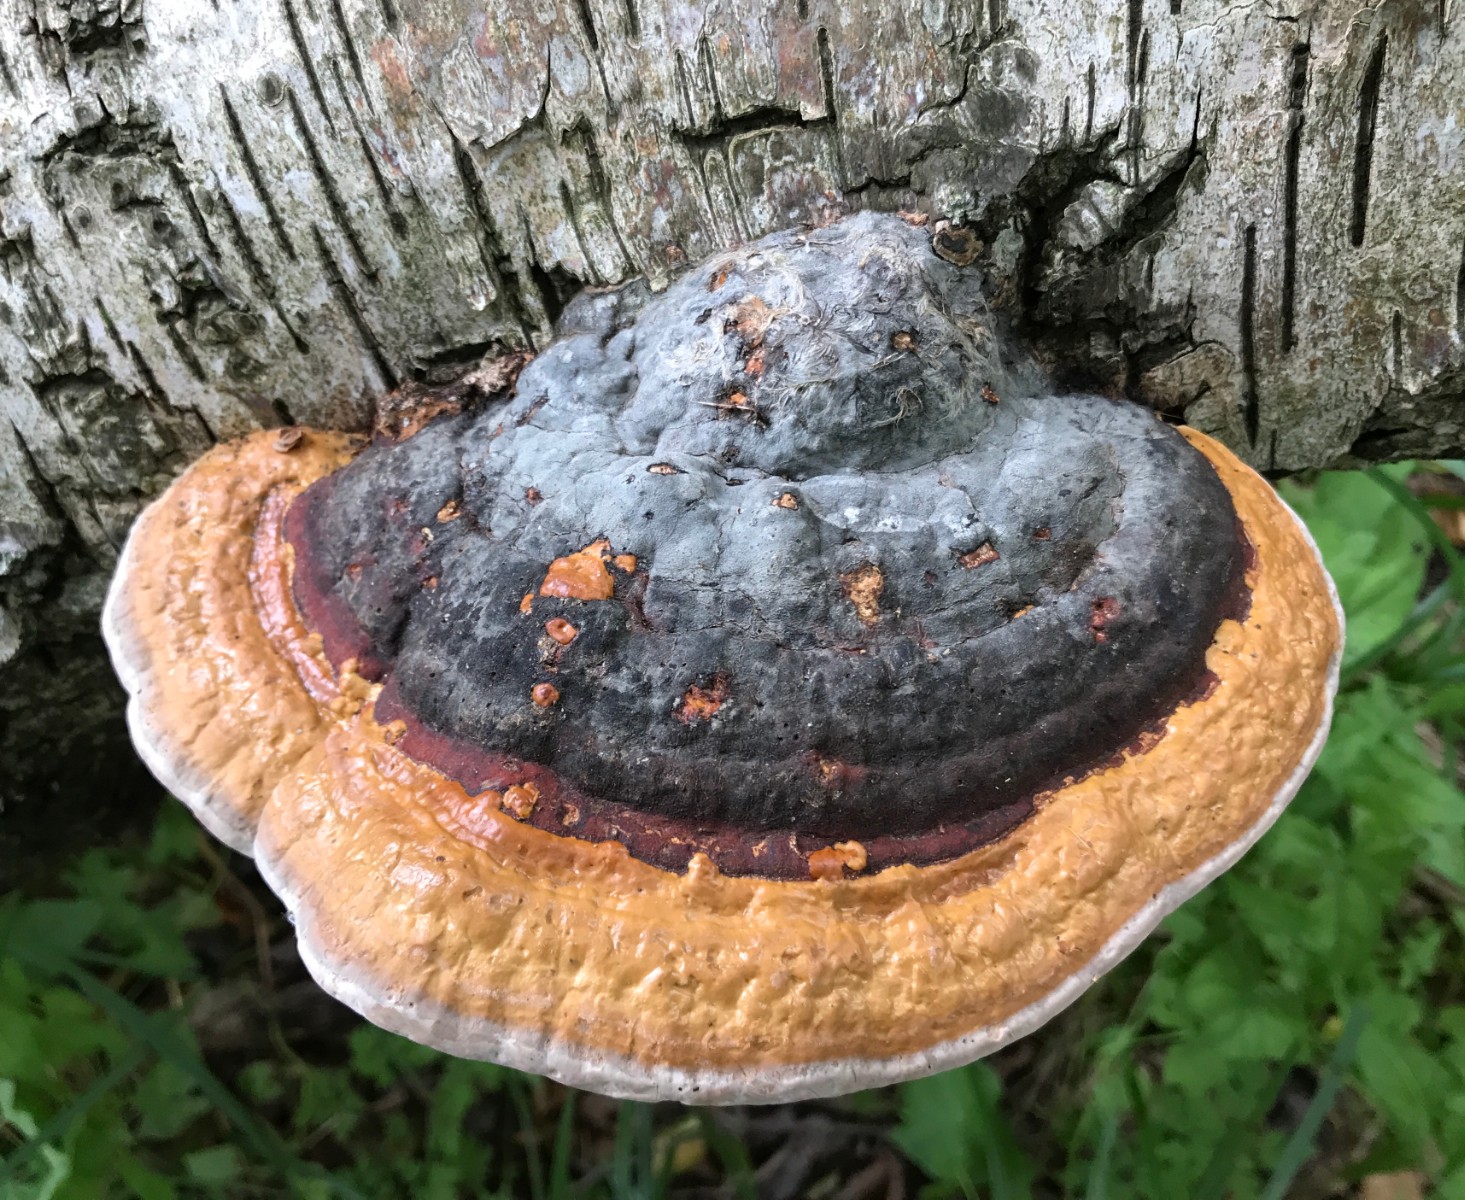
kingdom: Fungi
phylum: Basidiomycota
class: Agaricomycetes
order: Polyporales
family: Fomitopsidaceae
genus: Fomitopsis
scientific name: Fomitopsis pinicola
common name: randbæltet hovporesvamp
